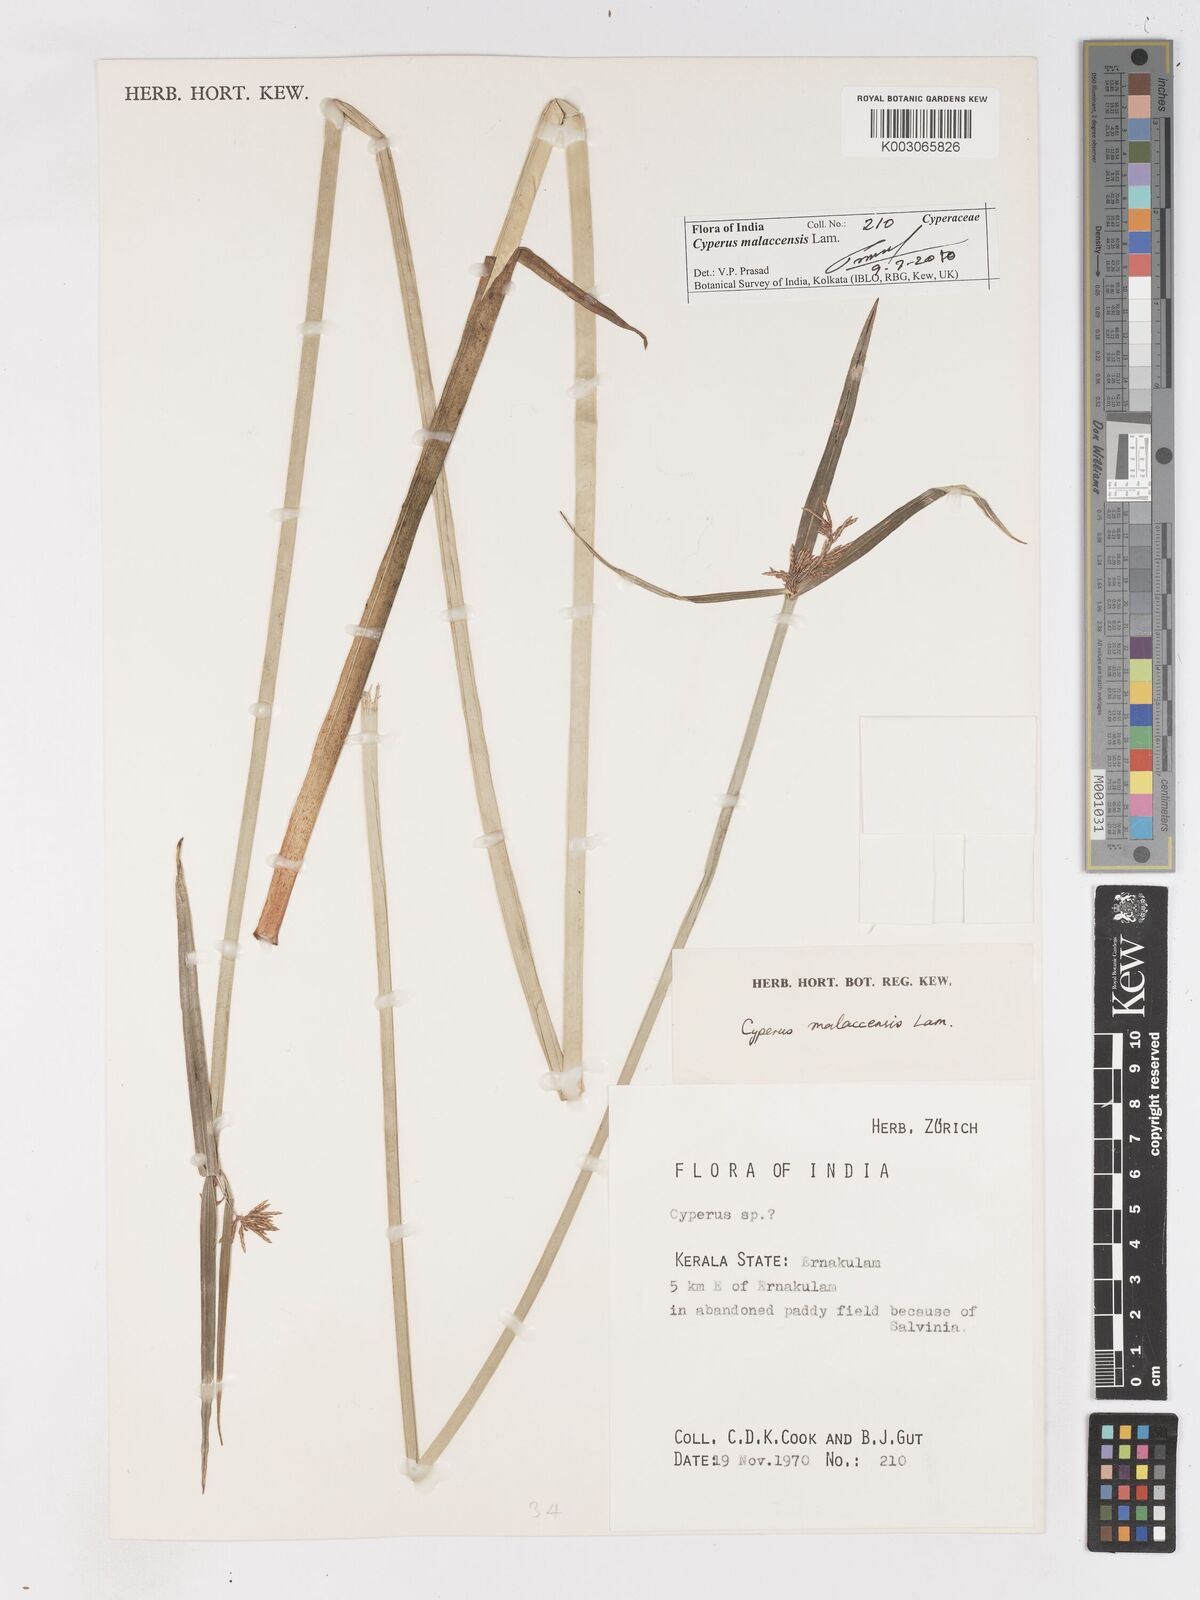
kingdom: Plantae
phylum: Tracheophyta
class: Liliopsida
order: Poales
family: Cyperaceae
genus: Cyperus
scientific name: Cyperus malaccensis
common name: Shichito matgrass
